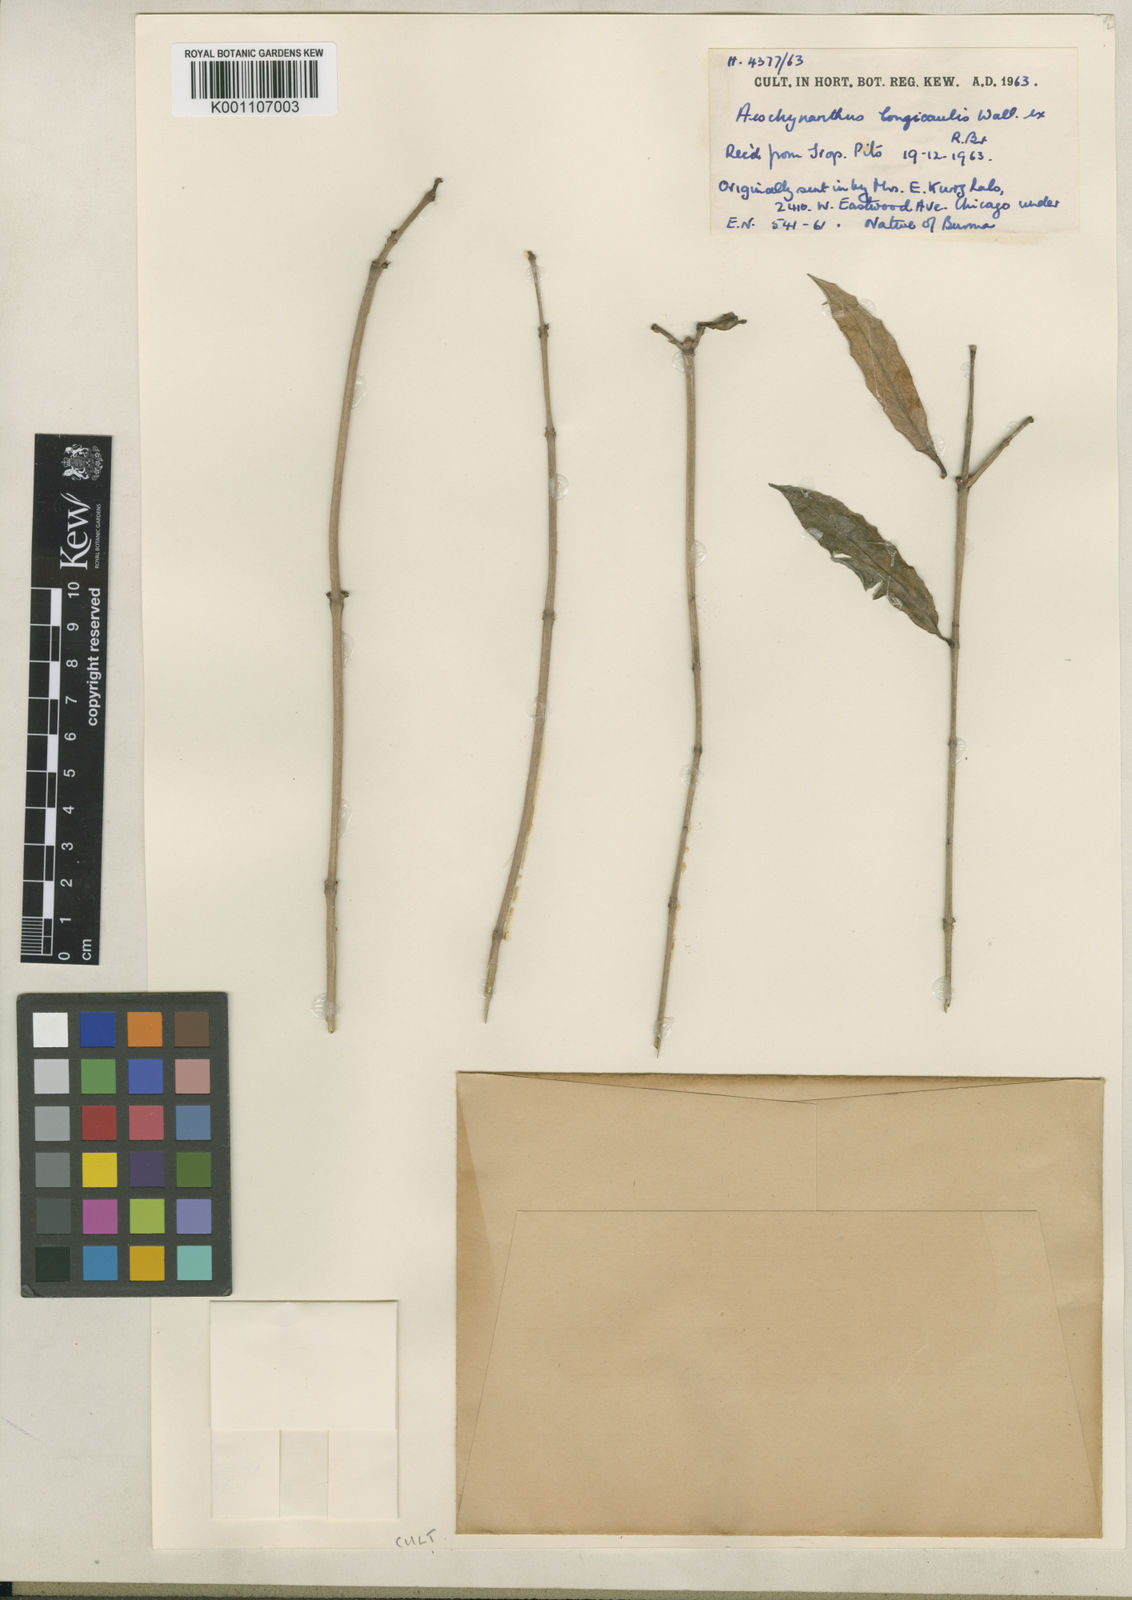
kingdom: Plantae
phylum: Tracheophyta
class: Magnoliopsida
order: Lamiales
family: Gesneriaceae
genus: Aeschynanthus
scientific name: Aeschynanthus longicaulis
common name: Zebra basketvine
